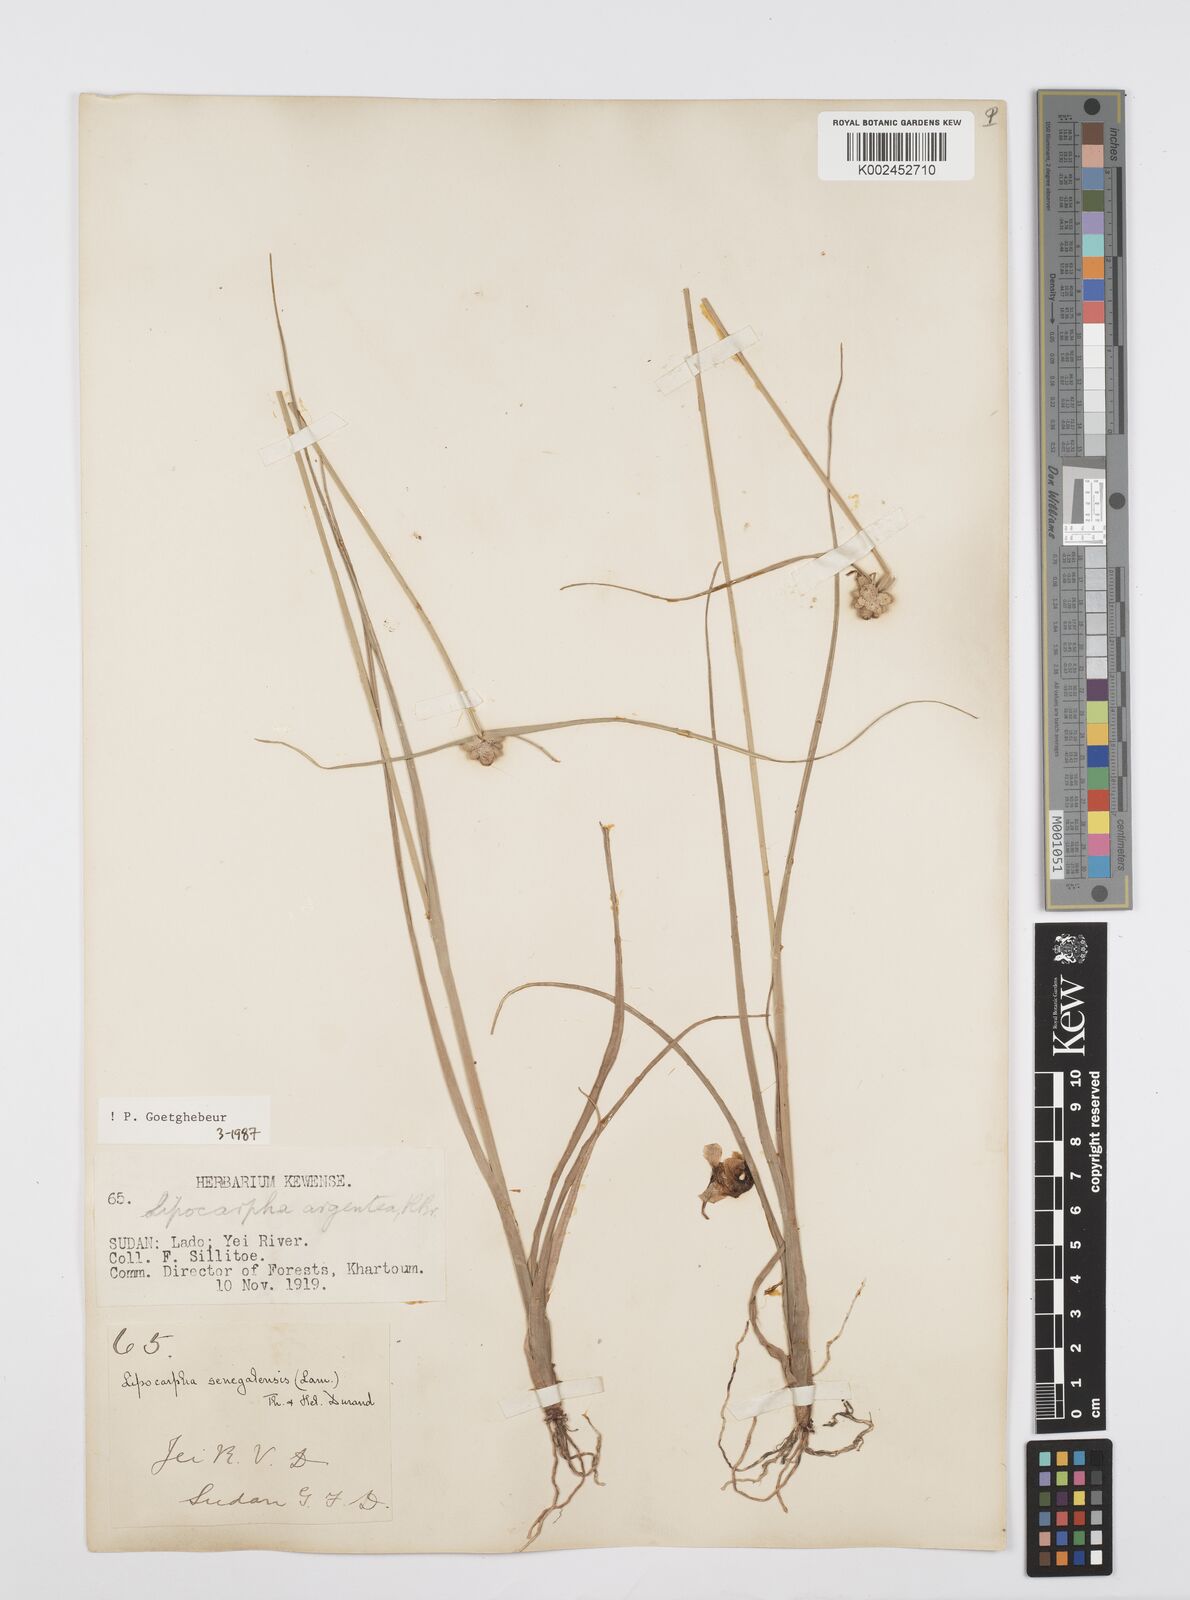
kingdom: Plantae
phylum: Tracheophyta
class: Liliopsida
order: Poales
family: Cyperaceae
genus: Cyperus
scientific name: Cyperus albescens
